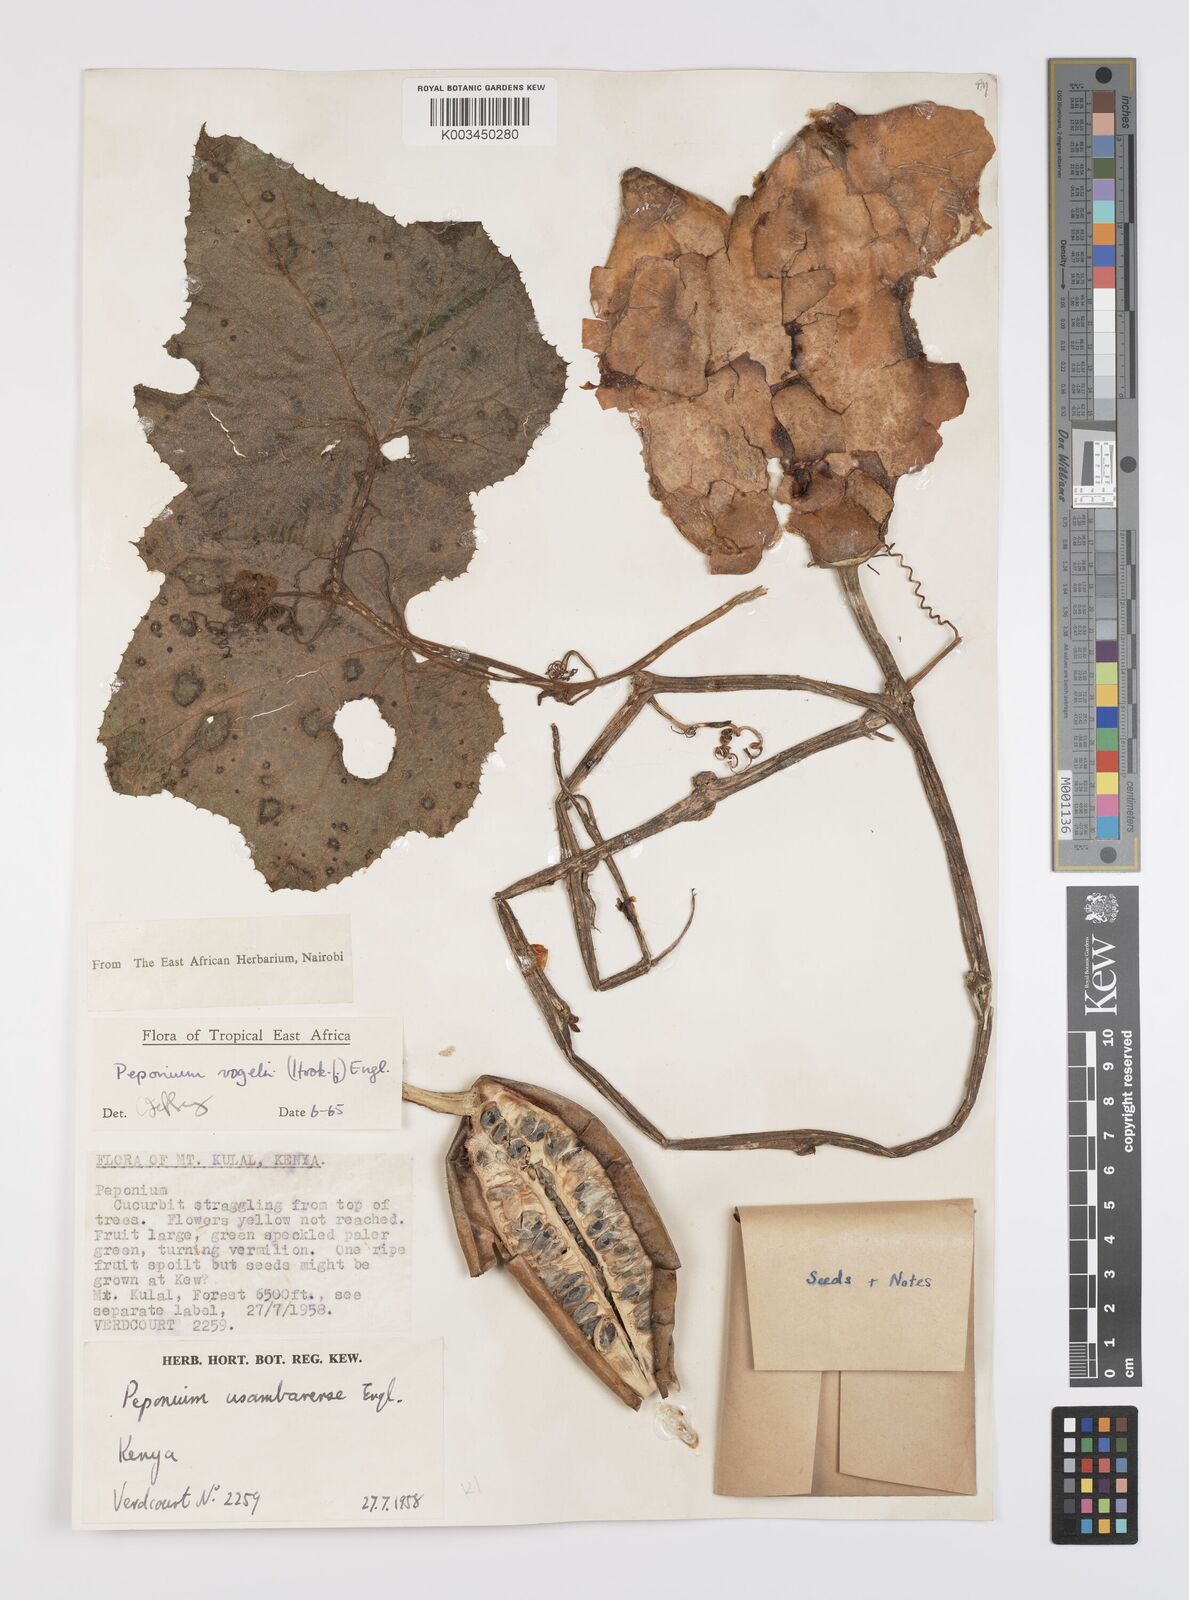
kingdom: Plantae
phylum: Tracheophyta
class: Magnoliopsida
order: Cucurbitales
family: Cucurbitaceae
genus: Peponium
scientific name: Peponium vogelii
